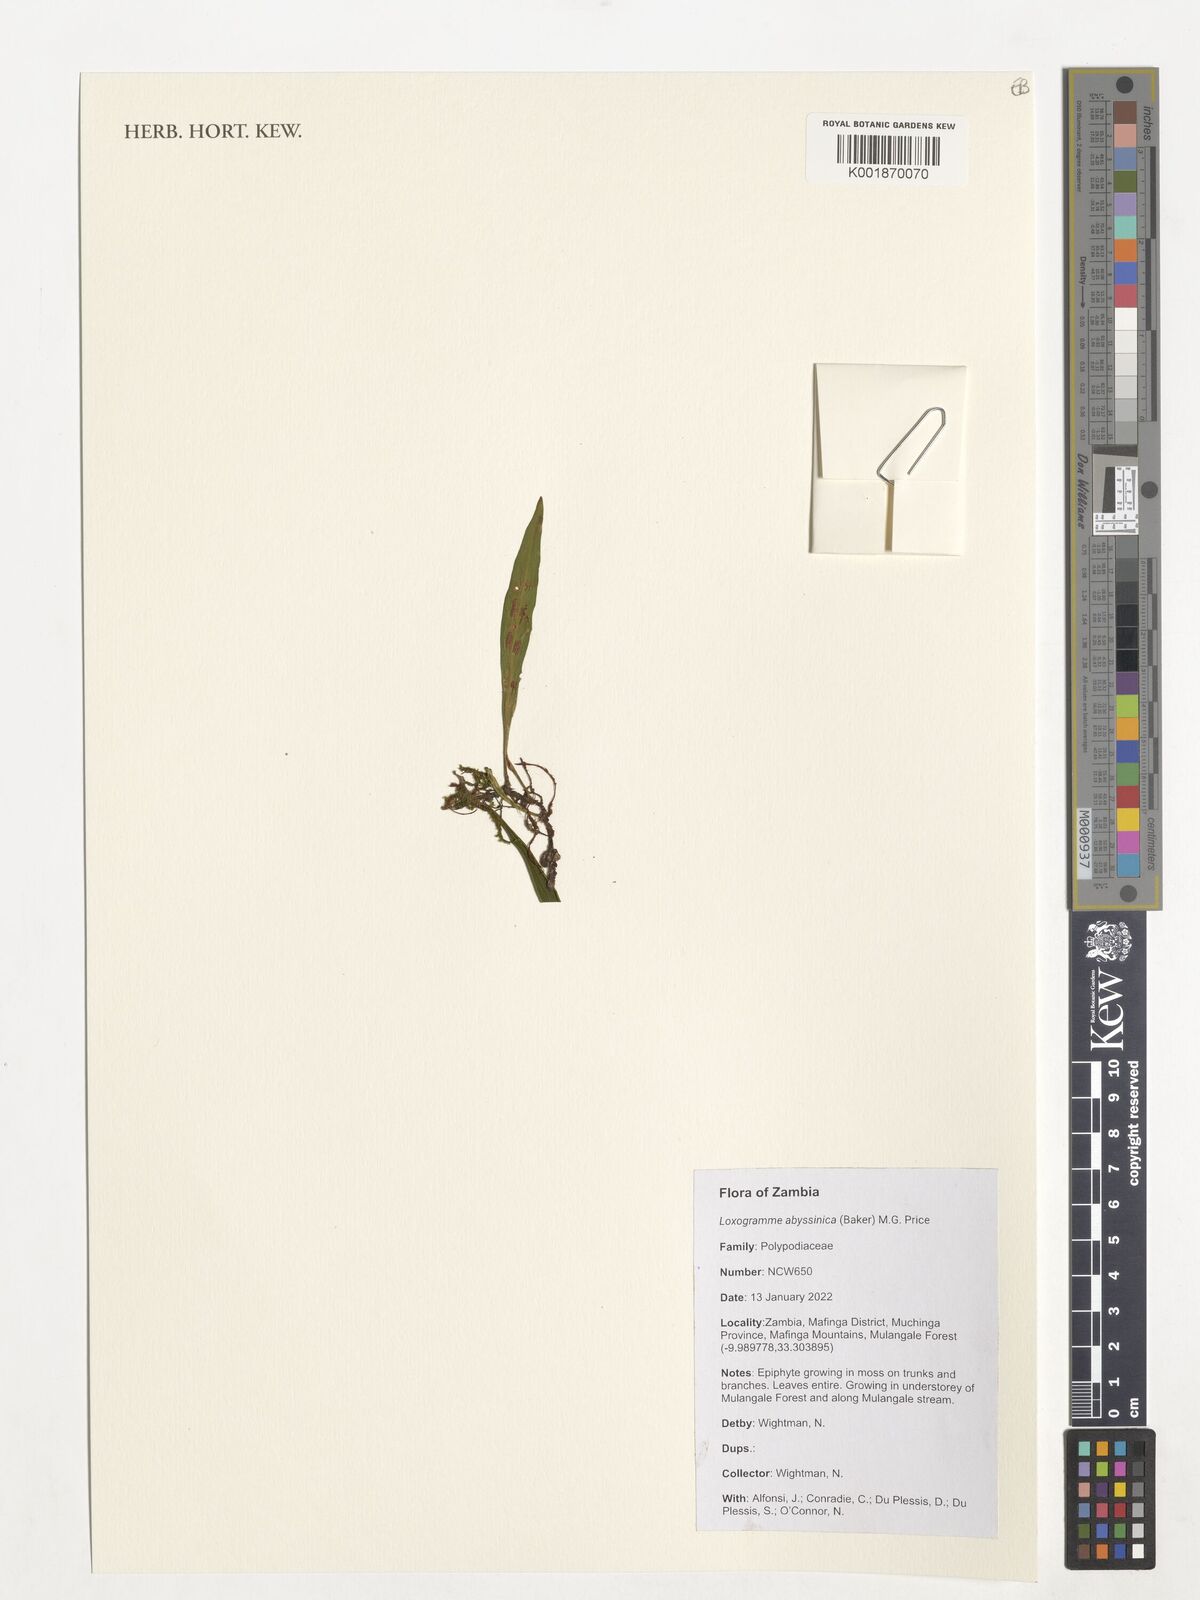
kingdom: Plantae
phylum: Tracheophyta
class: Polypodiopsida
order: Polypodiales
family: Polypodiaceae
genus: Loxogramme
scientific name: Loxogramme abyssinica
